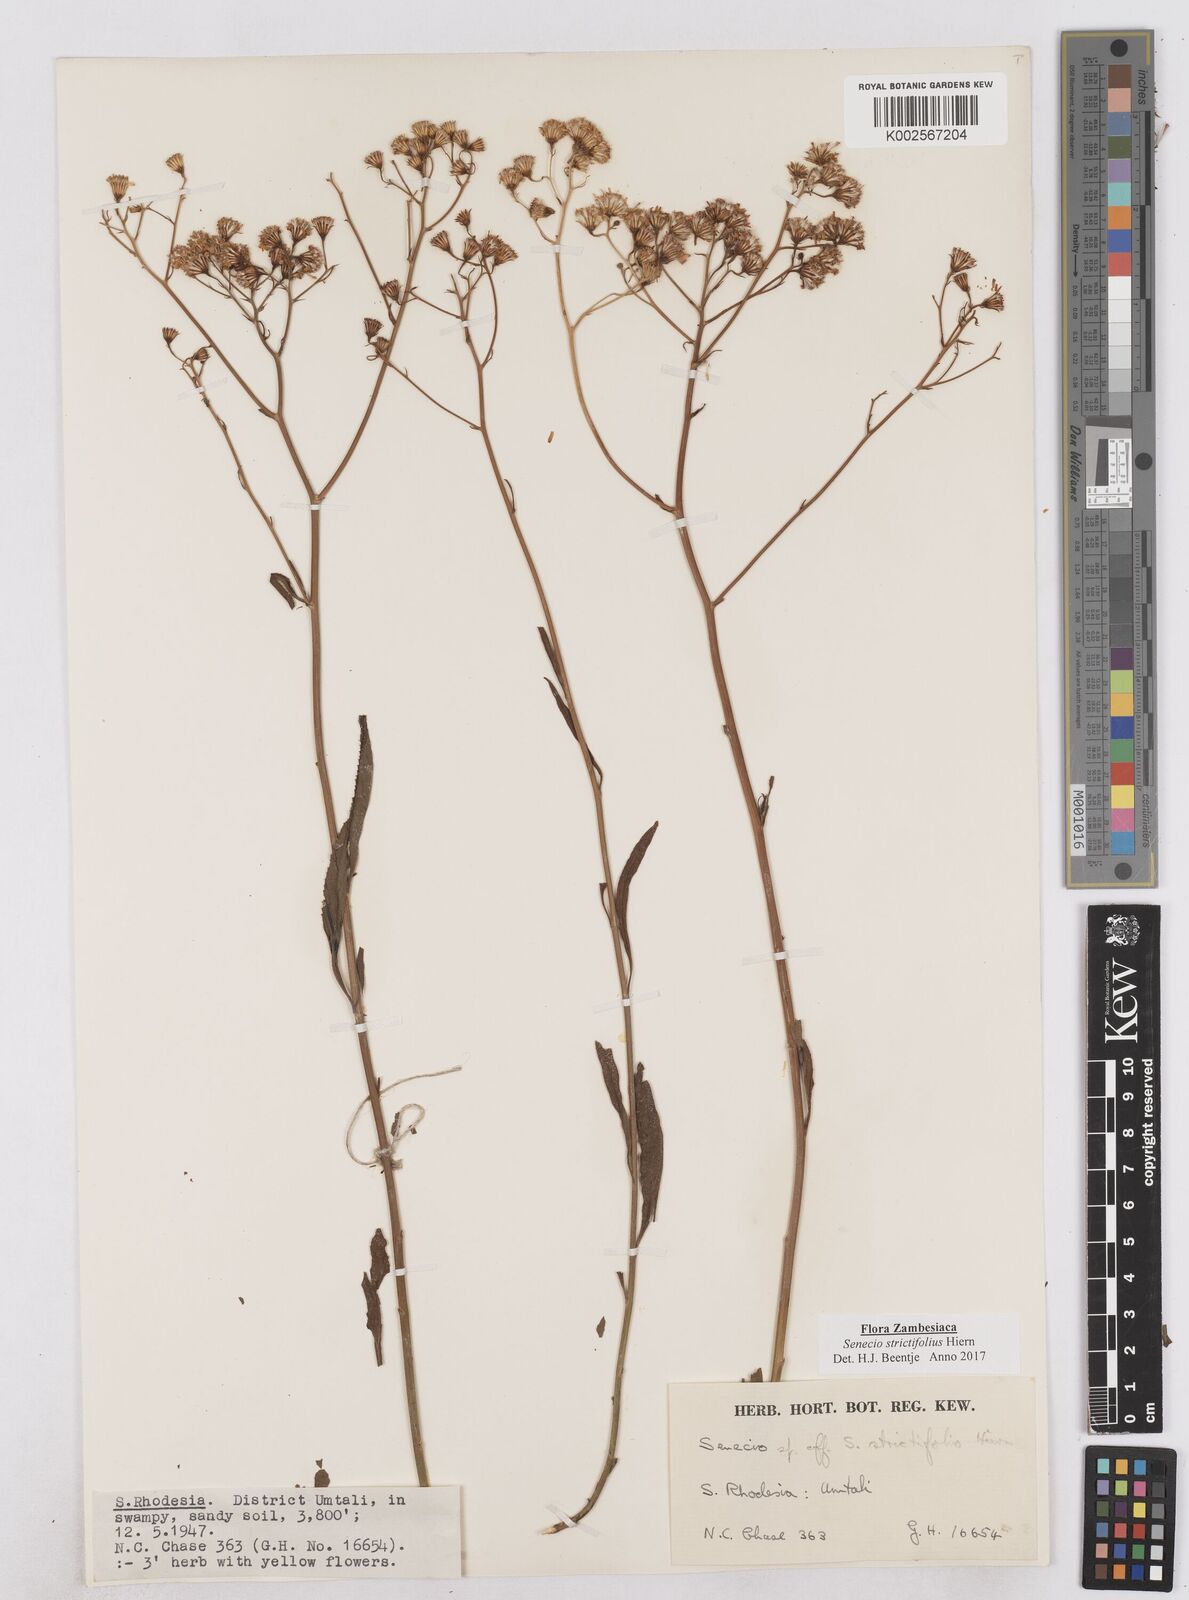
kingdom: Plantae
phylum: Tracheophyta
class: Magnoliopsida
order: Asterales
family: Asteraceae
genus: Senecio
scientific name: Senecio strictifolius
